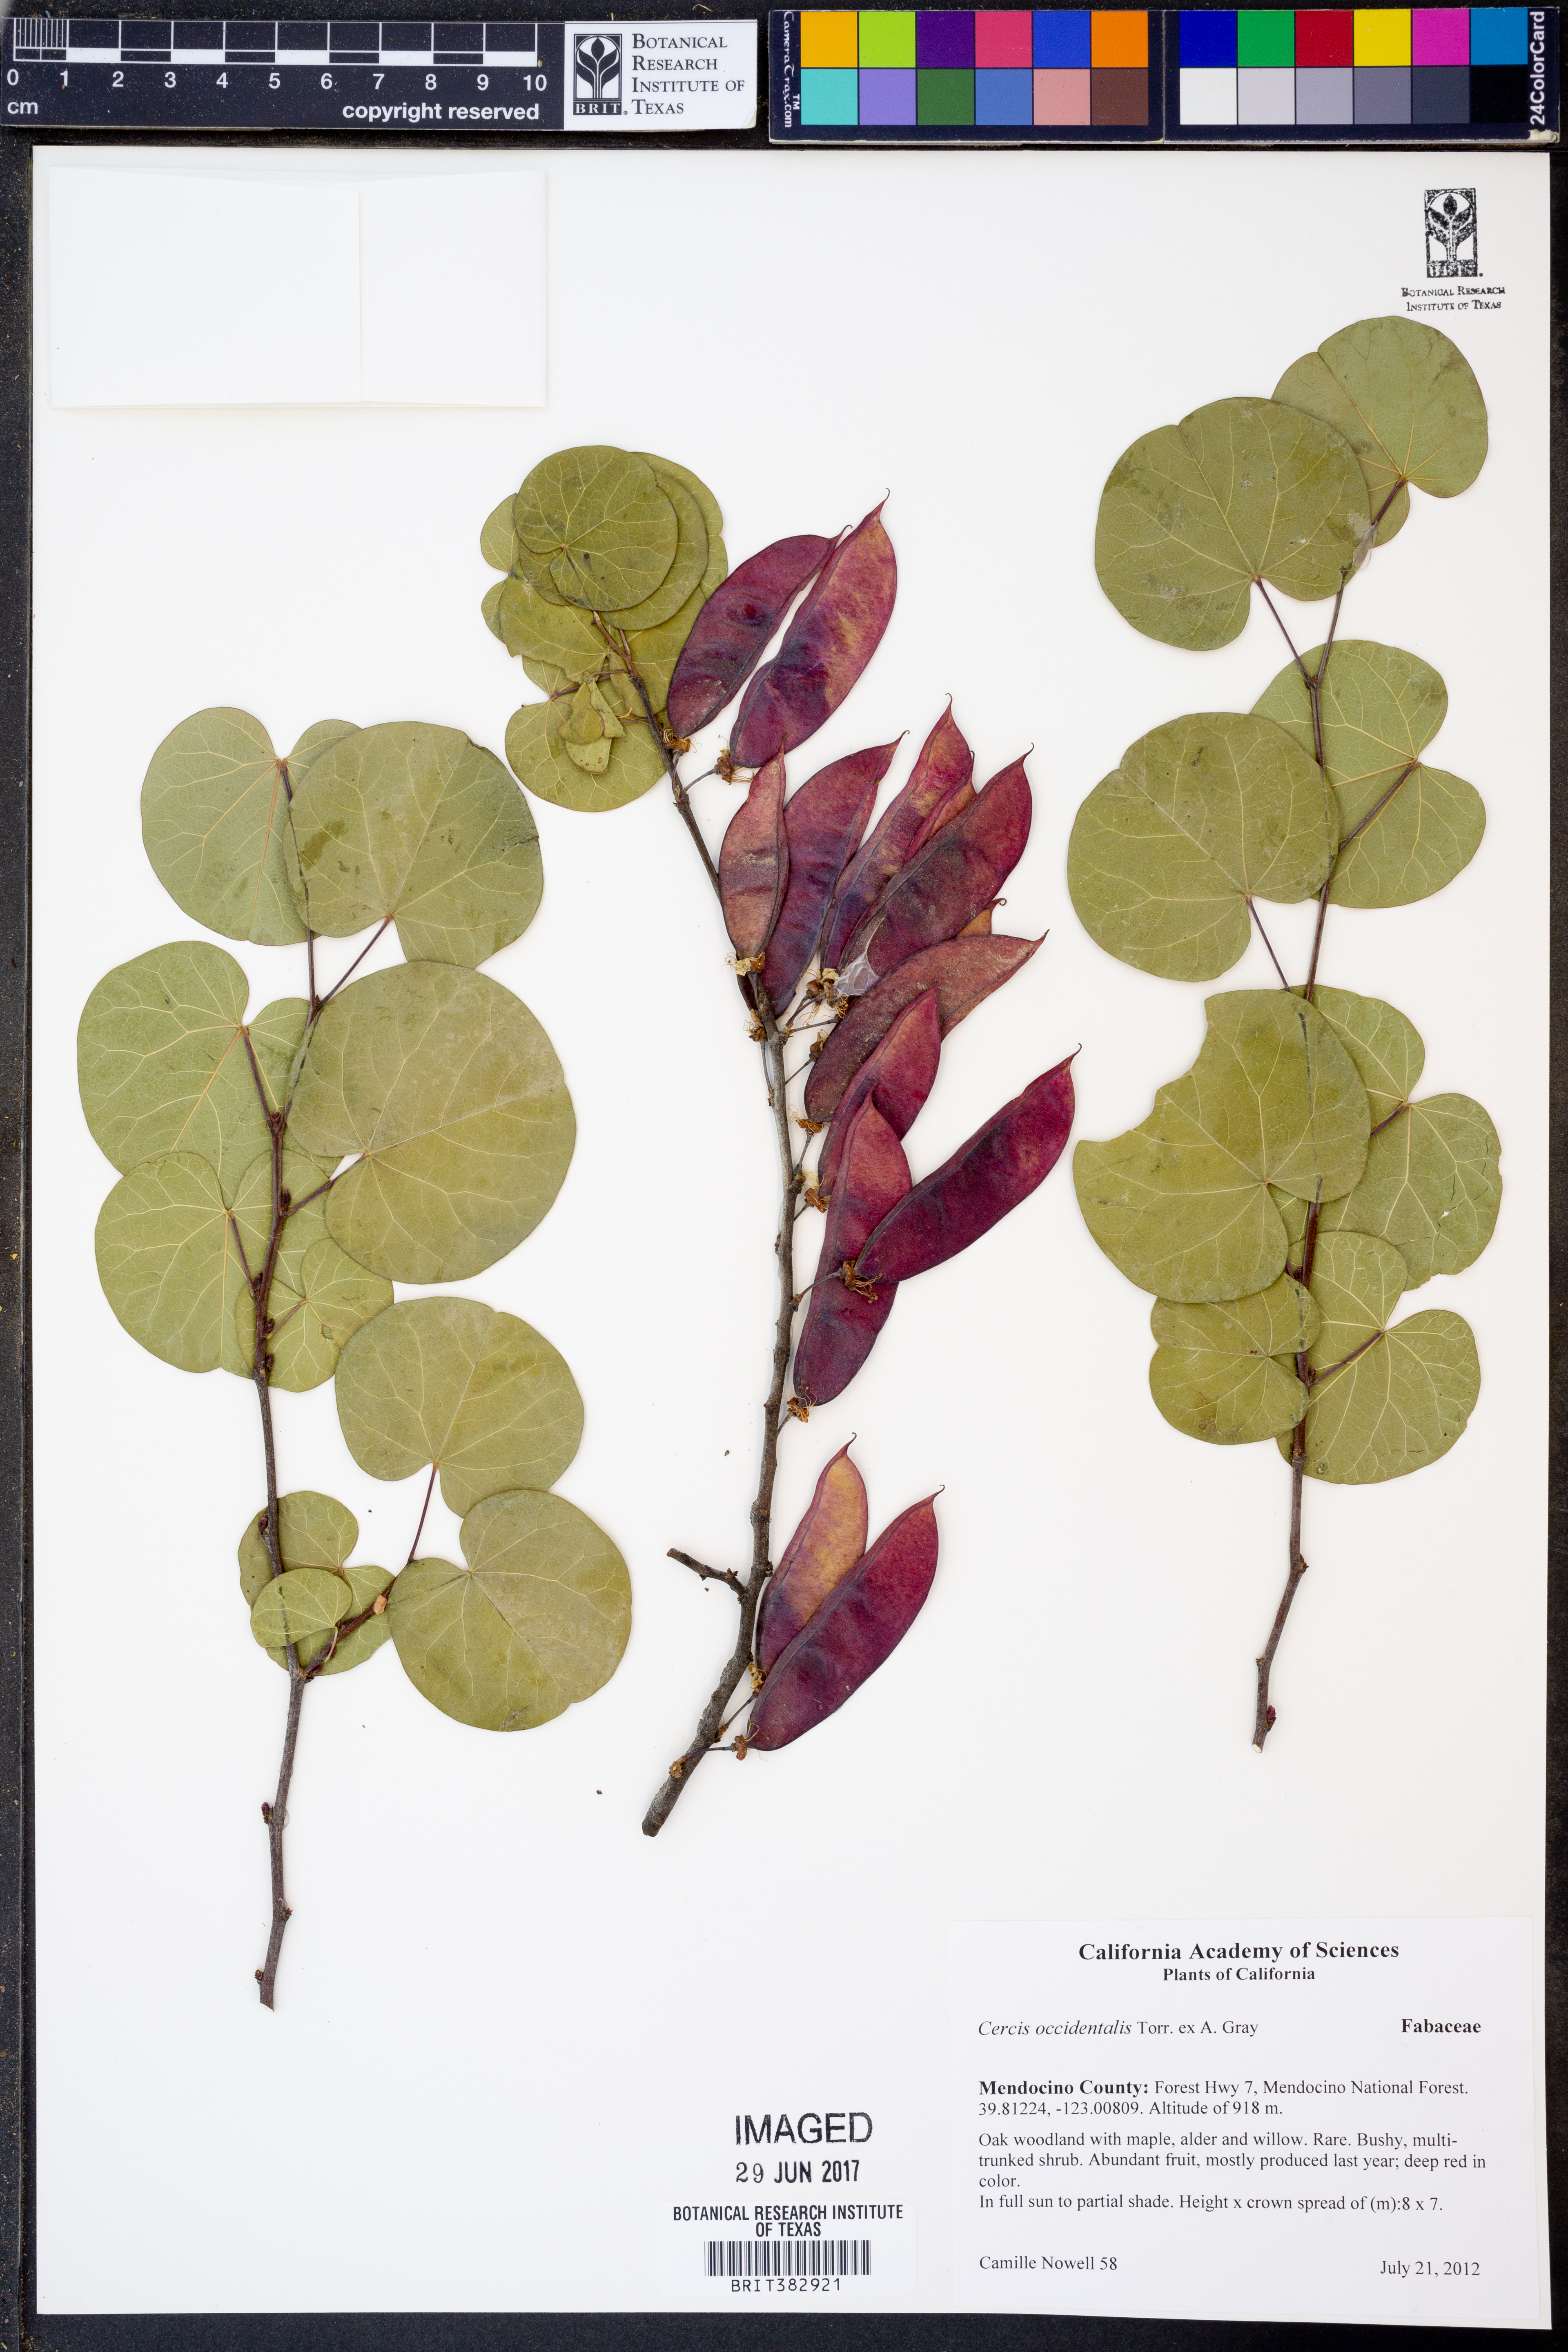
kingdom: Plantae
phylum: Tracheophyta
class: Magnoliopsida
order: Fabales
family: Fabaceae
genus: Cercis
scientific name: Cercis occidentalis
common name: California redbud
